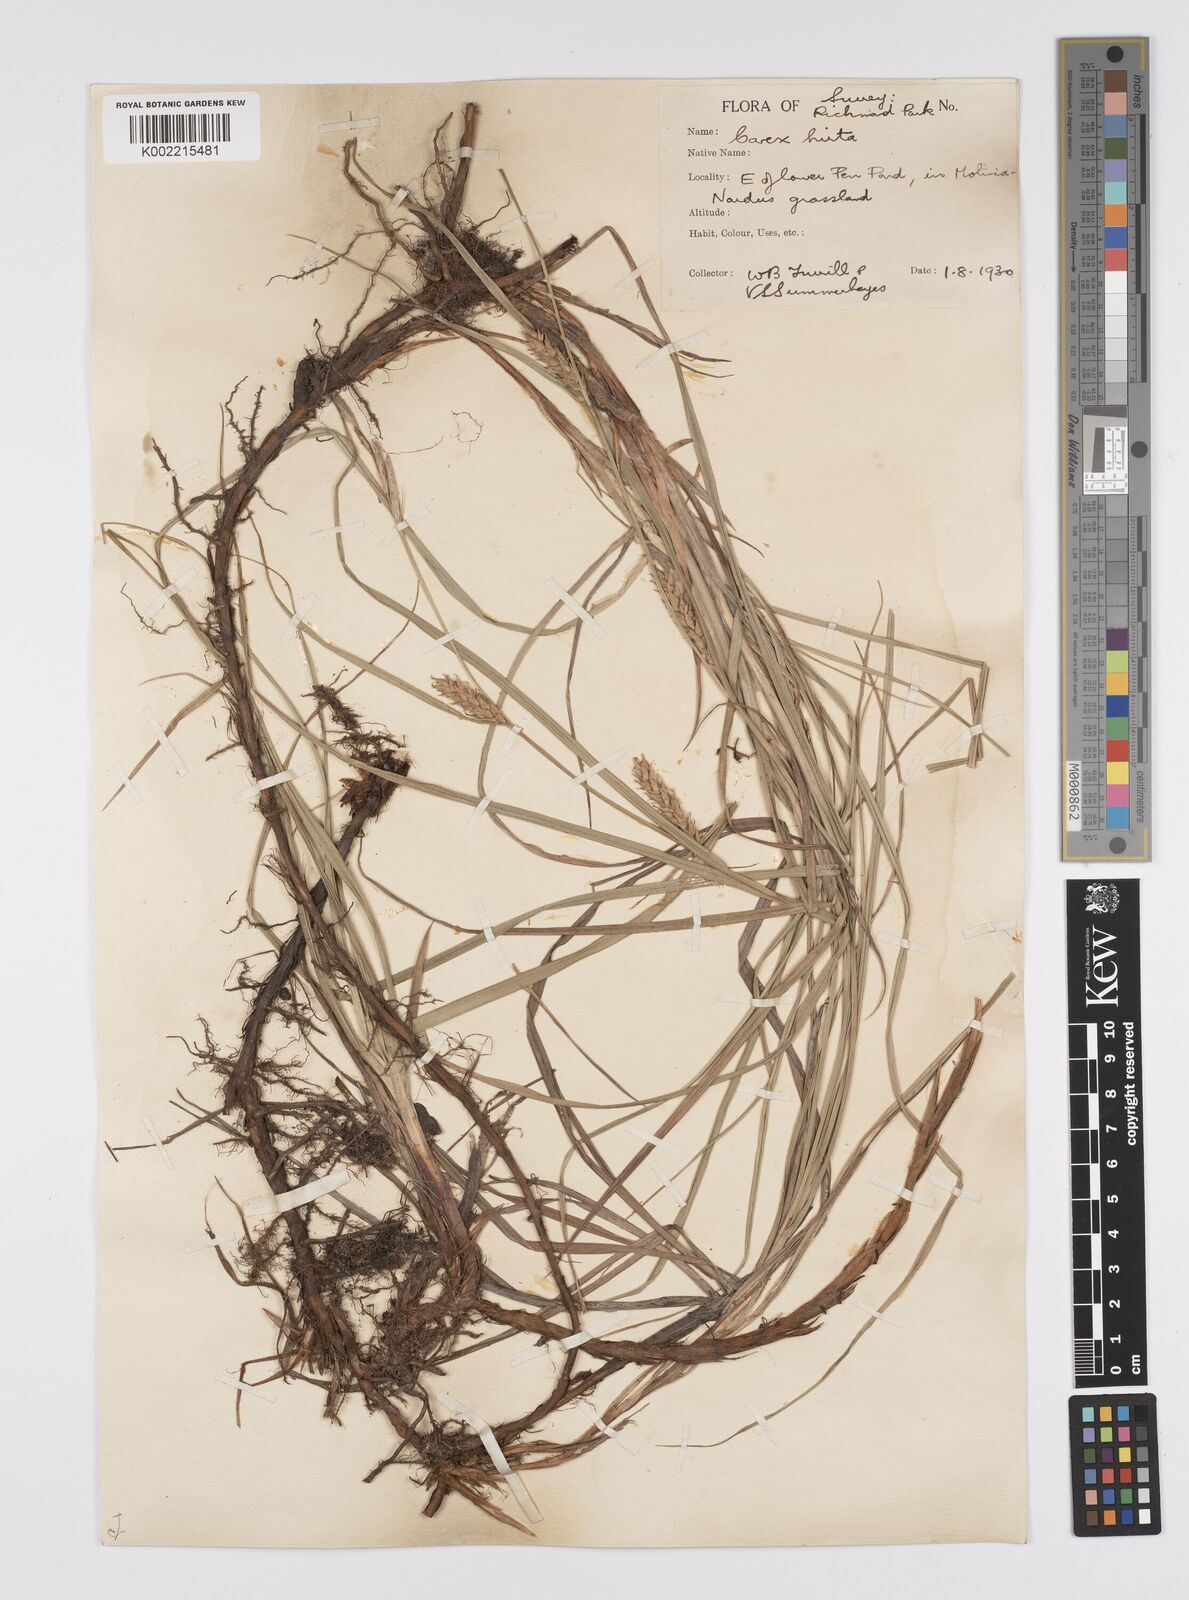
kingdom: Plantae
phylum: Tracheophyta
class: Liliopsida
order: Poales
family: Cyperaceae
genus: Carex
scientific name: Carex hirta
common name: Hairy sedge
